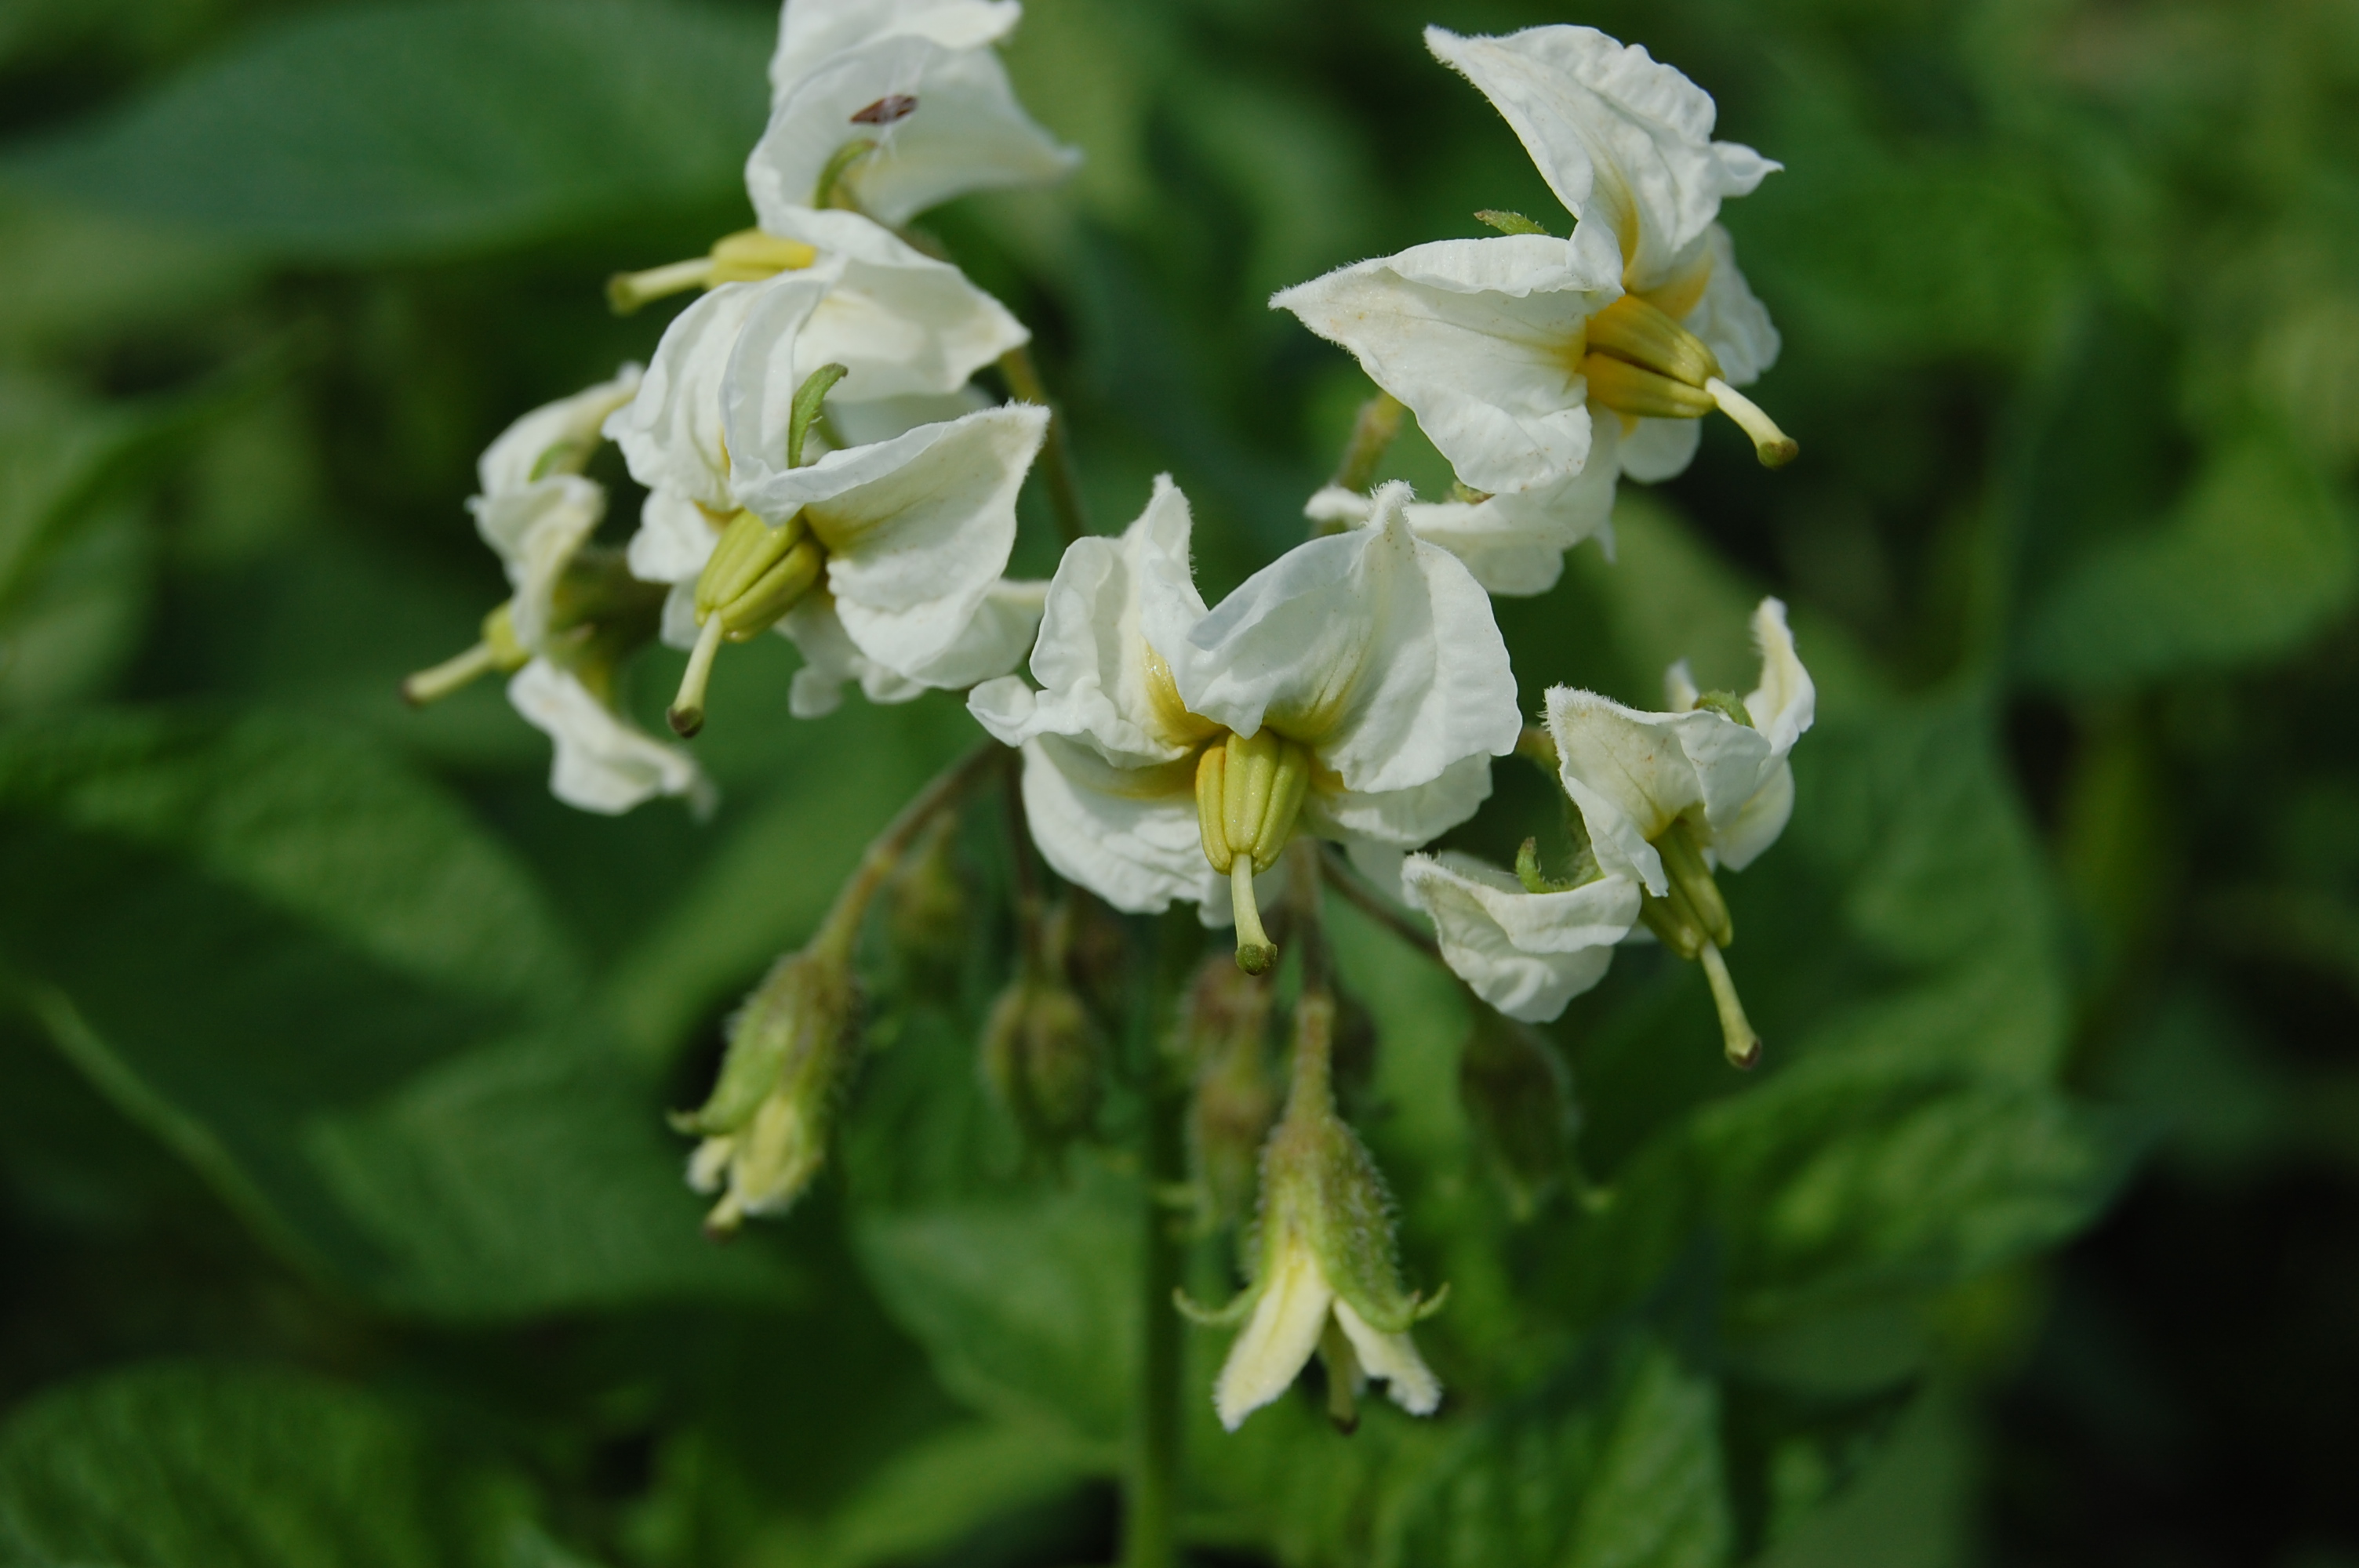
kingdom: Plantae
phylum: Tracheophyta
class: Magnoliopsida
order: Solanales
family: Solanaceae
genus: Solanum
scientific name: Solanum tuberosum
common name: Potato
